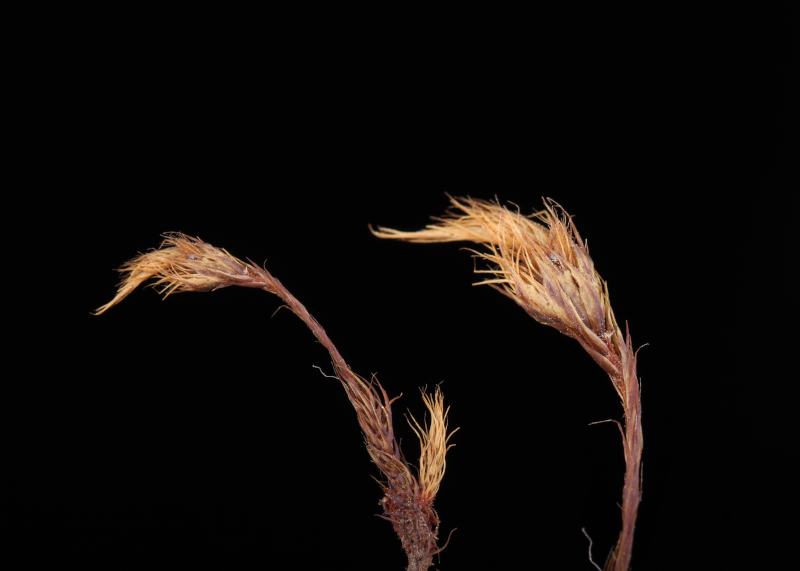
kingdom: Plantae
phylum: Bryophyta
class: Bryopsida
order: Dicranales
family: Leucobryaceae
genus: Campylopus
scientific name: Campylopus richardii
